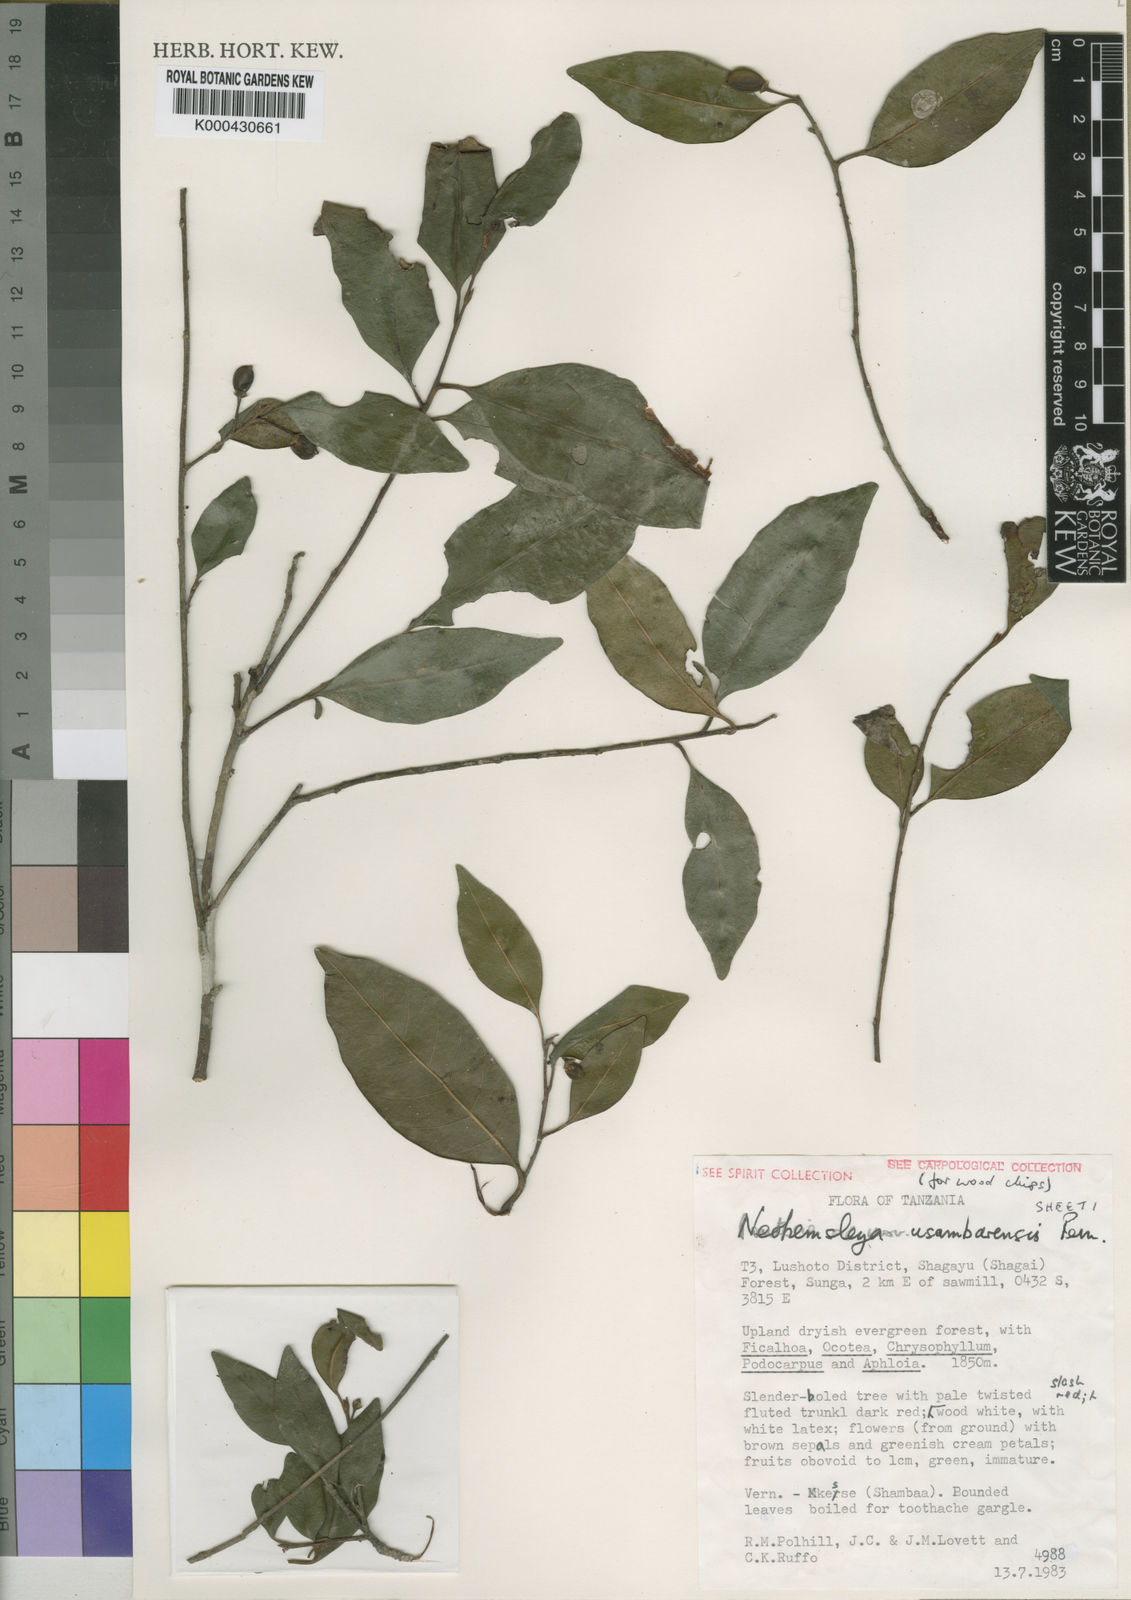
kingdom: Plantae
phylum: Tracheophyta
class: Magnoliopsida
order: Ericales
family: Sapotaceae
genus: Neohemsleya
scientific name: Neohemsleya usambarensis
